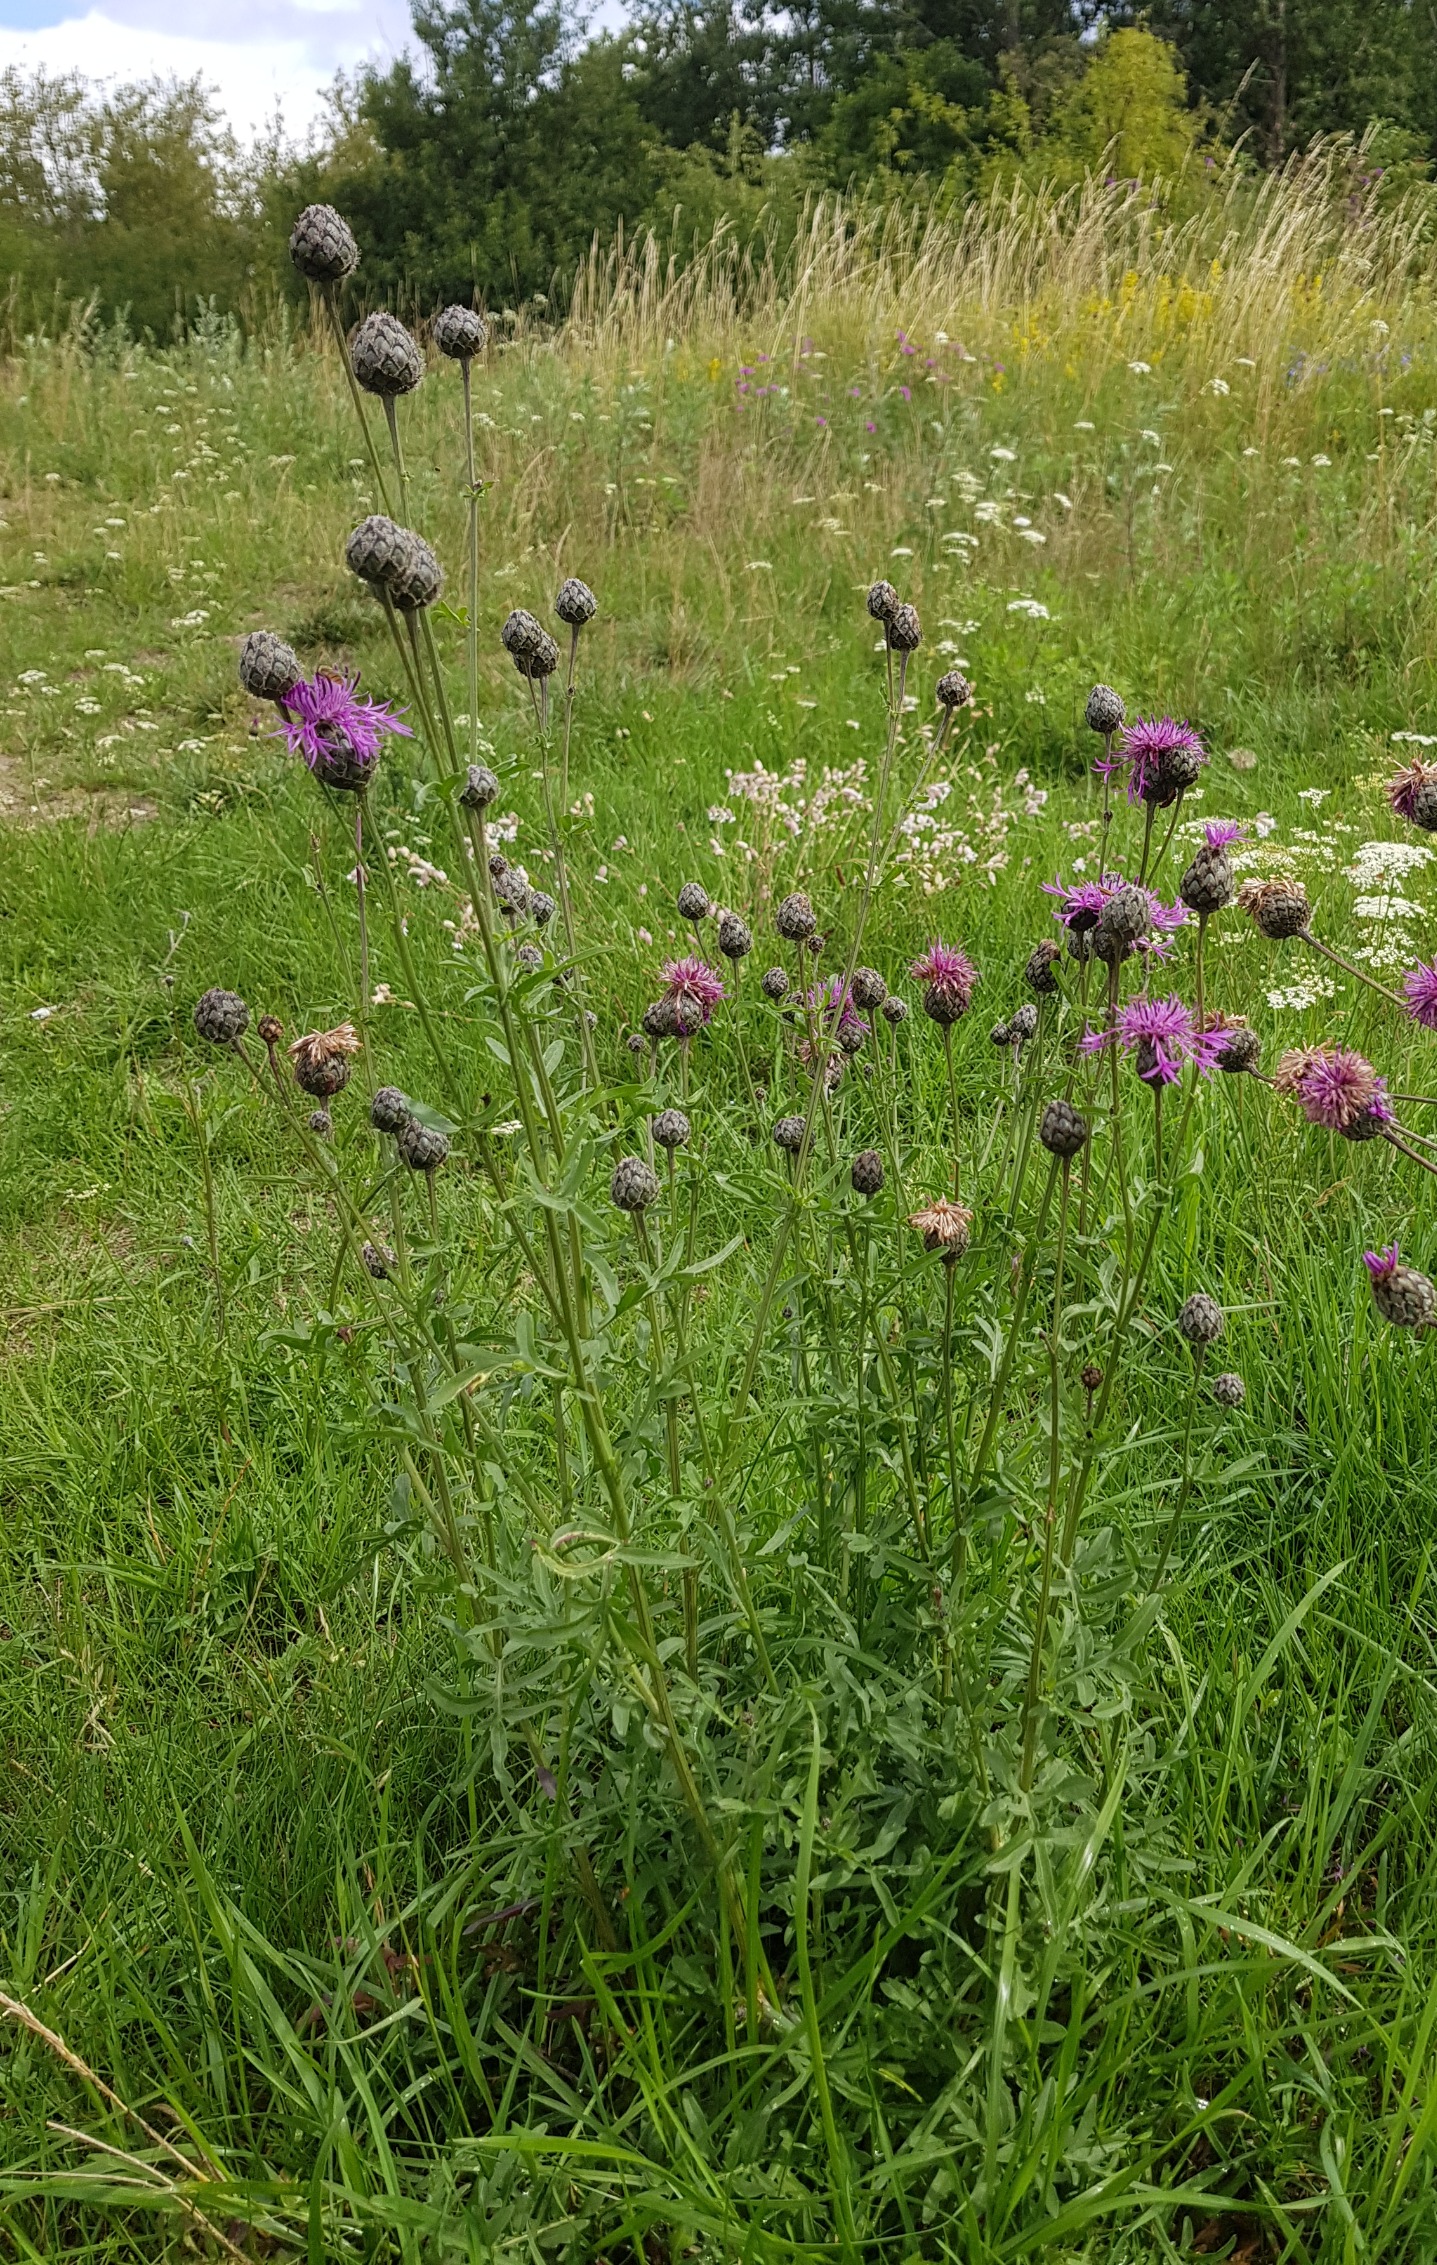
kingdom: Plantae
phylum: Tracheophyta
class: Magnoliopsida
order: Asterales
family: Asteraceae
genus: Centaurea
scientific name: Centaurea scabiosa
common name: Stor knopurt
